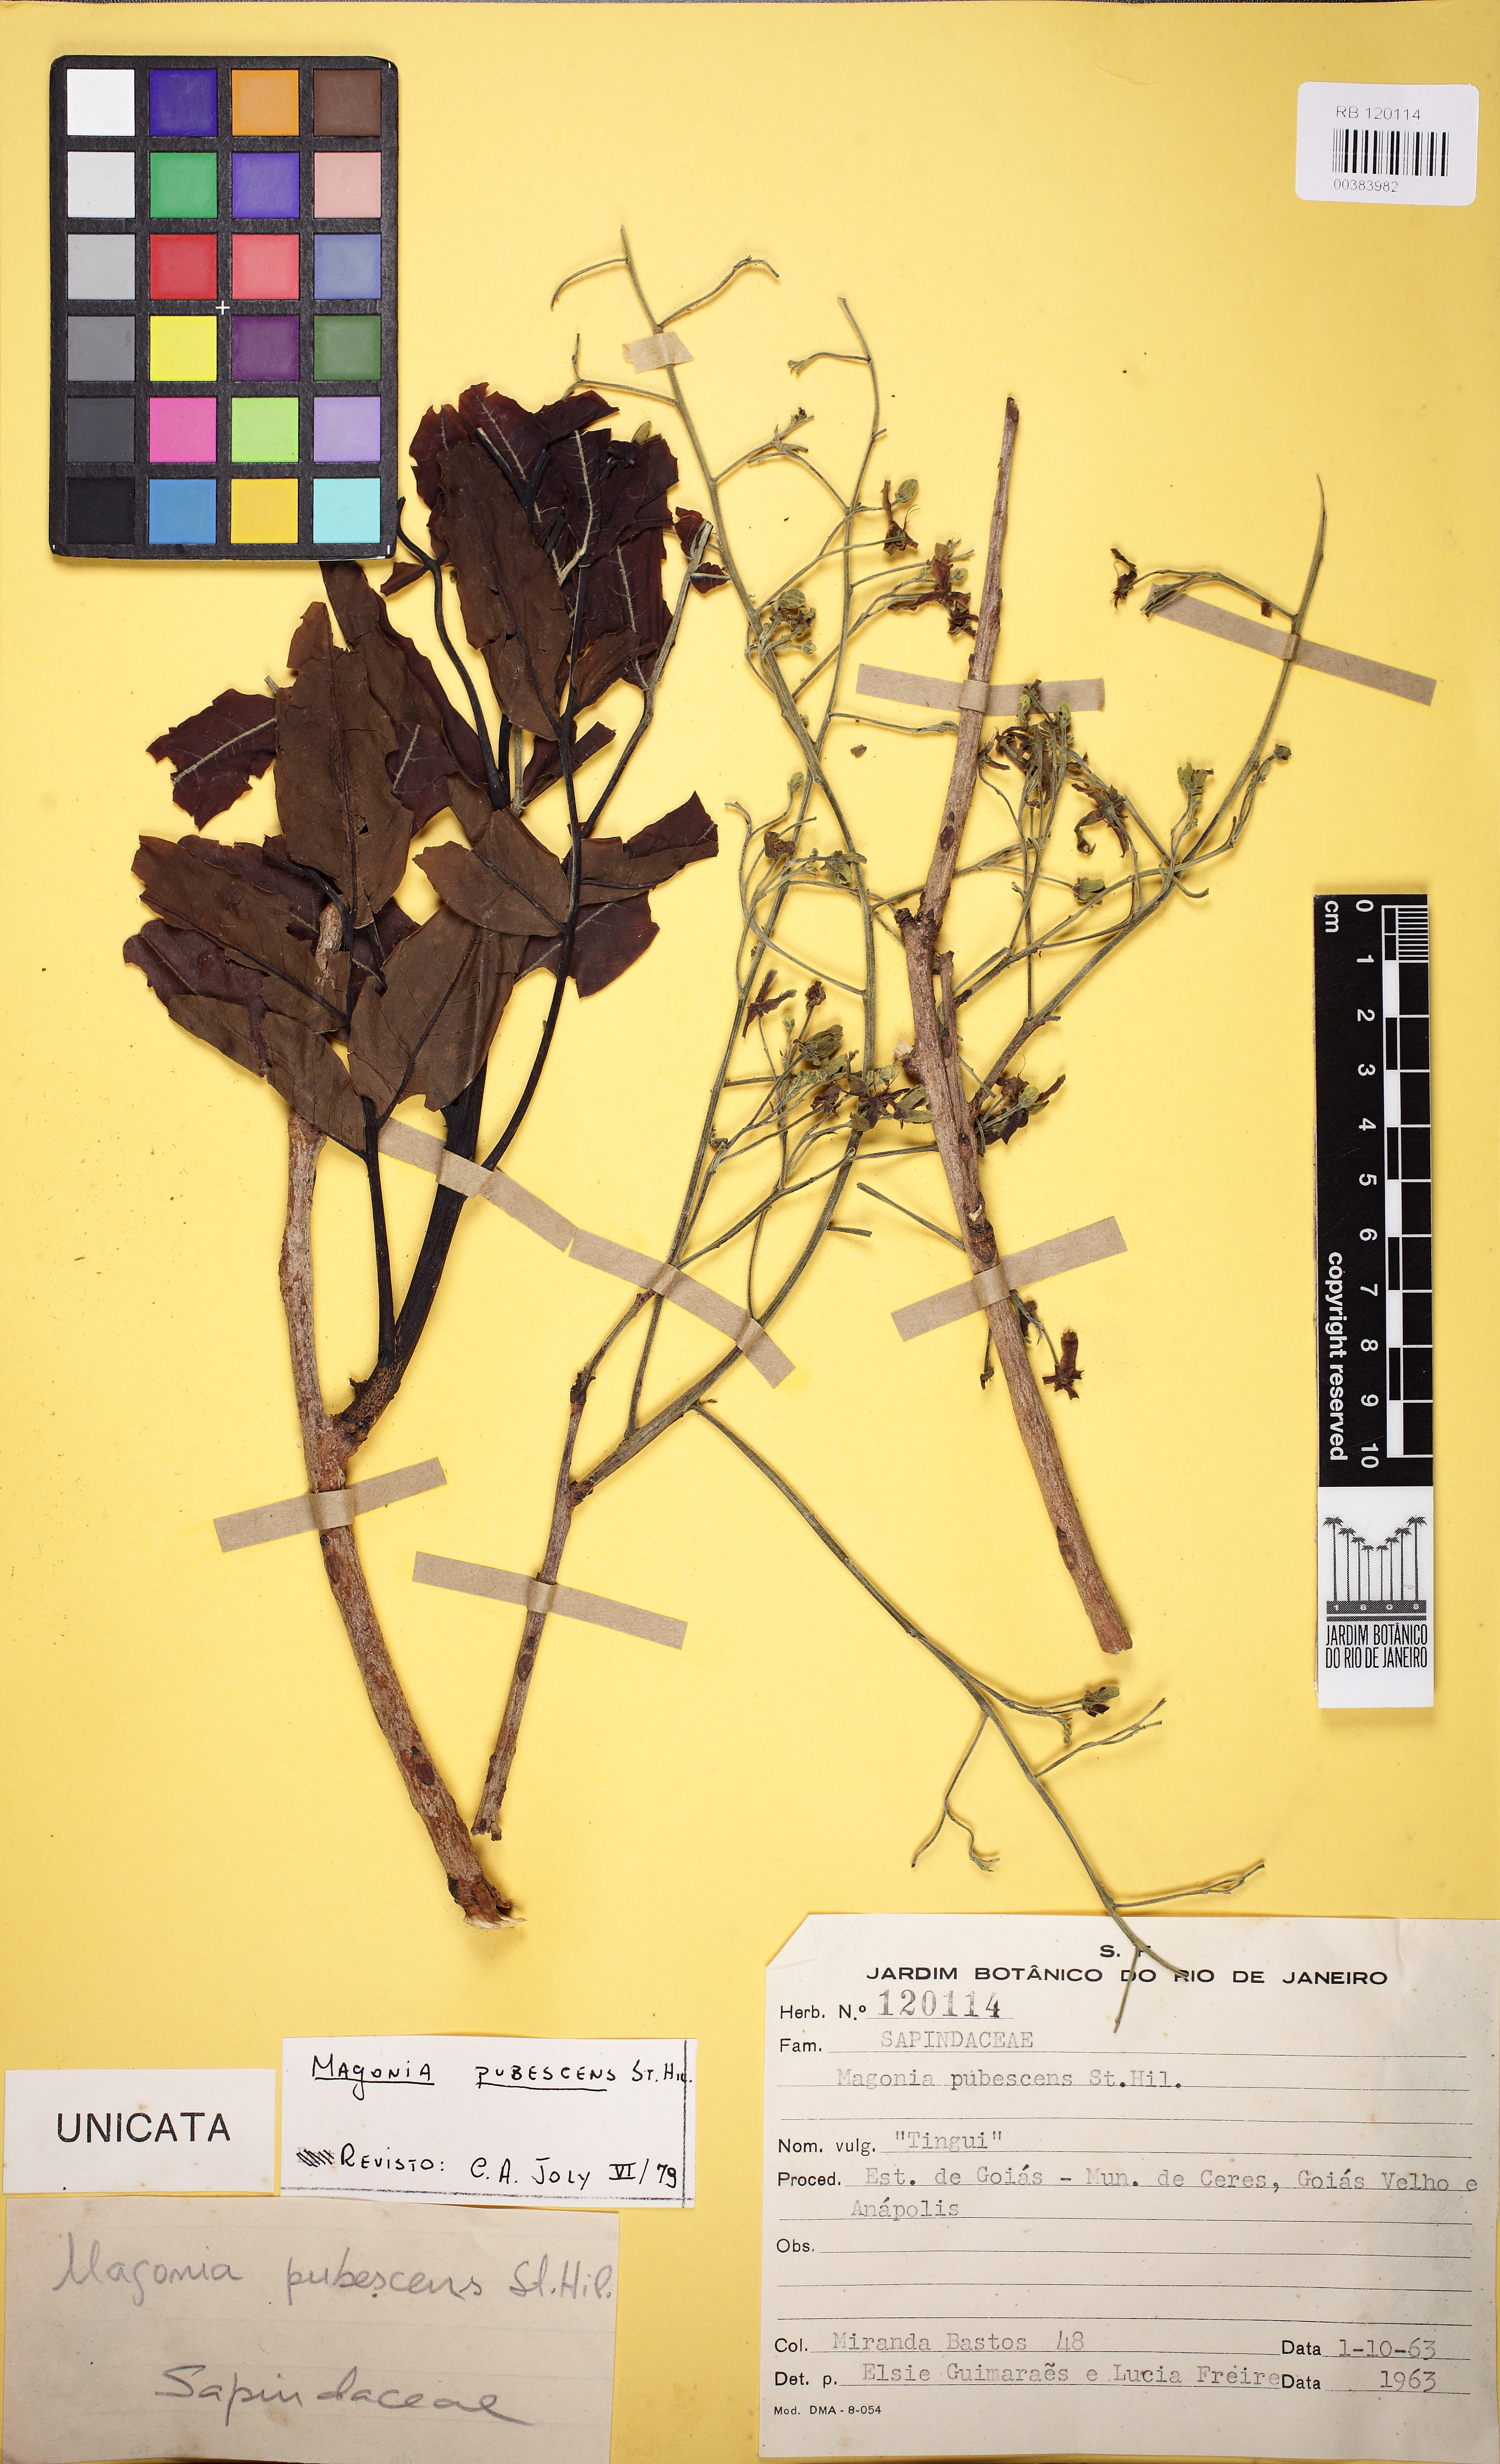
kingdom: Plantae
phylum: Tracheophyta
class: Magnoliopsida
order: Sapindales
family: Sapindaceae
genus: Magonia
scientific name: Magonia pubescens
